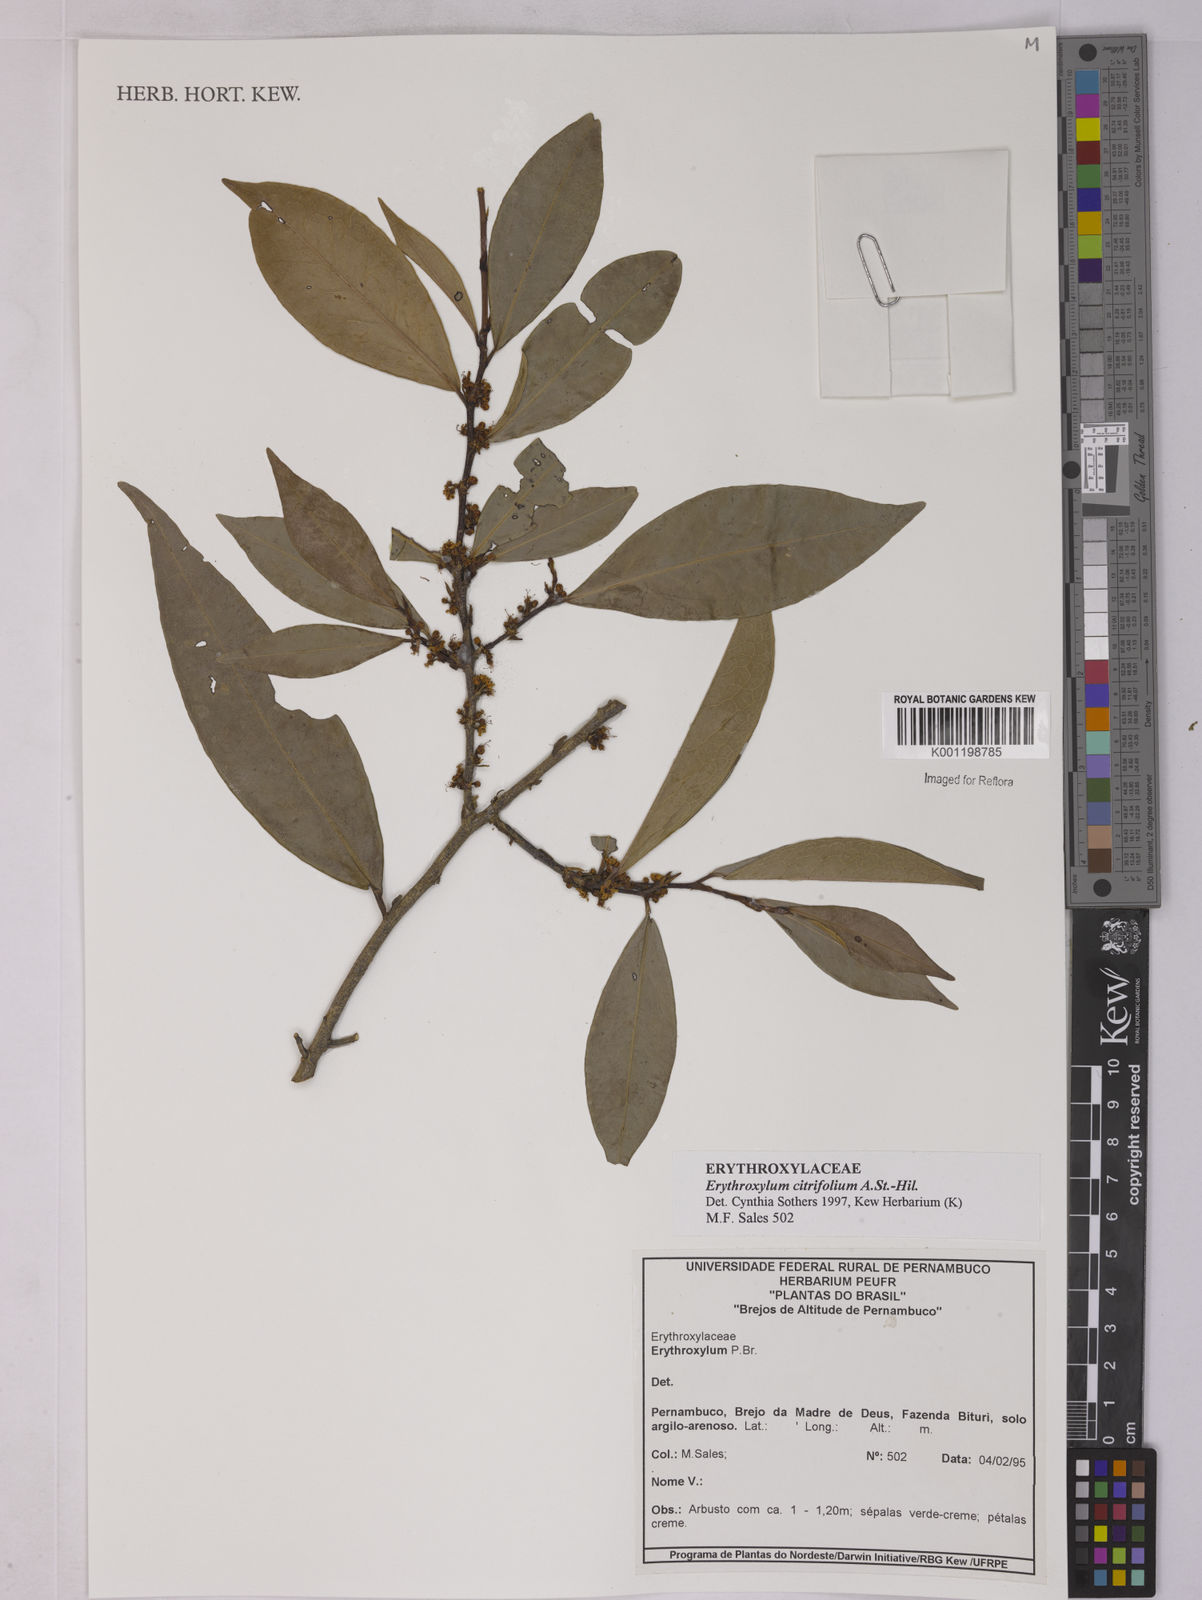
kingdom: Plantae
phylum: Tracheophyta
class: Magnoliopsida
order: Malpighiales
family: Erythroxylaceae
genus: Erythroxylum
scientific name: Erythroxylum citrifolium
